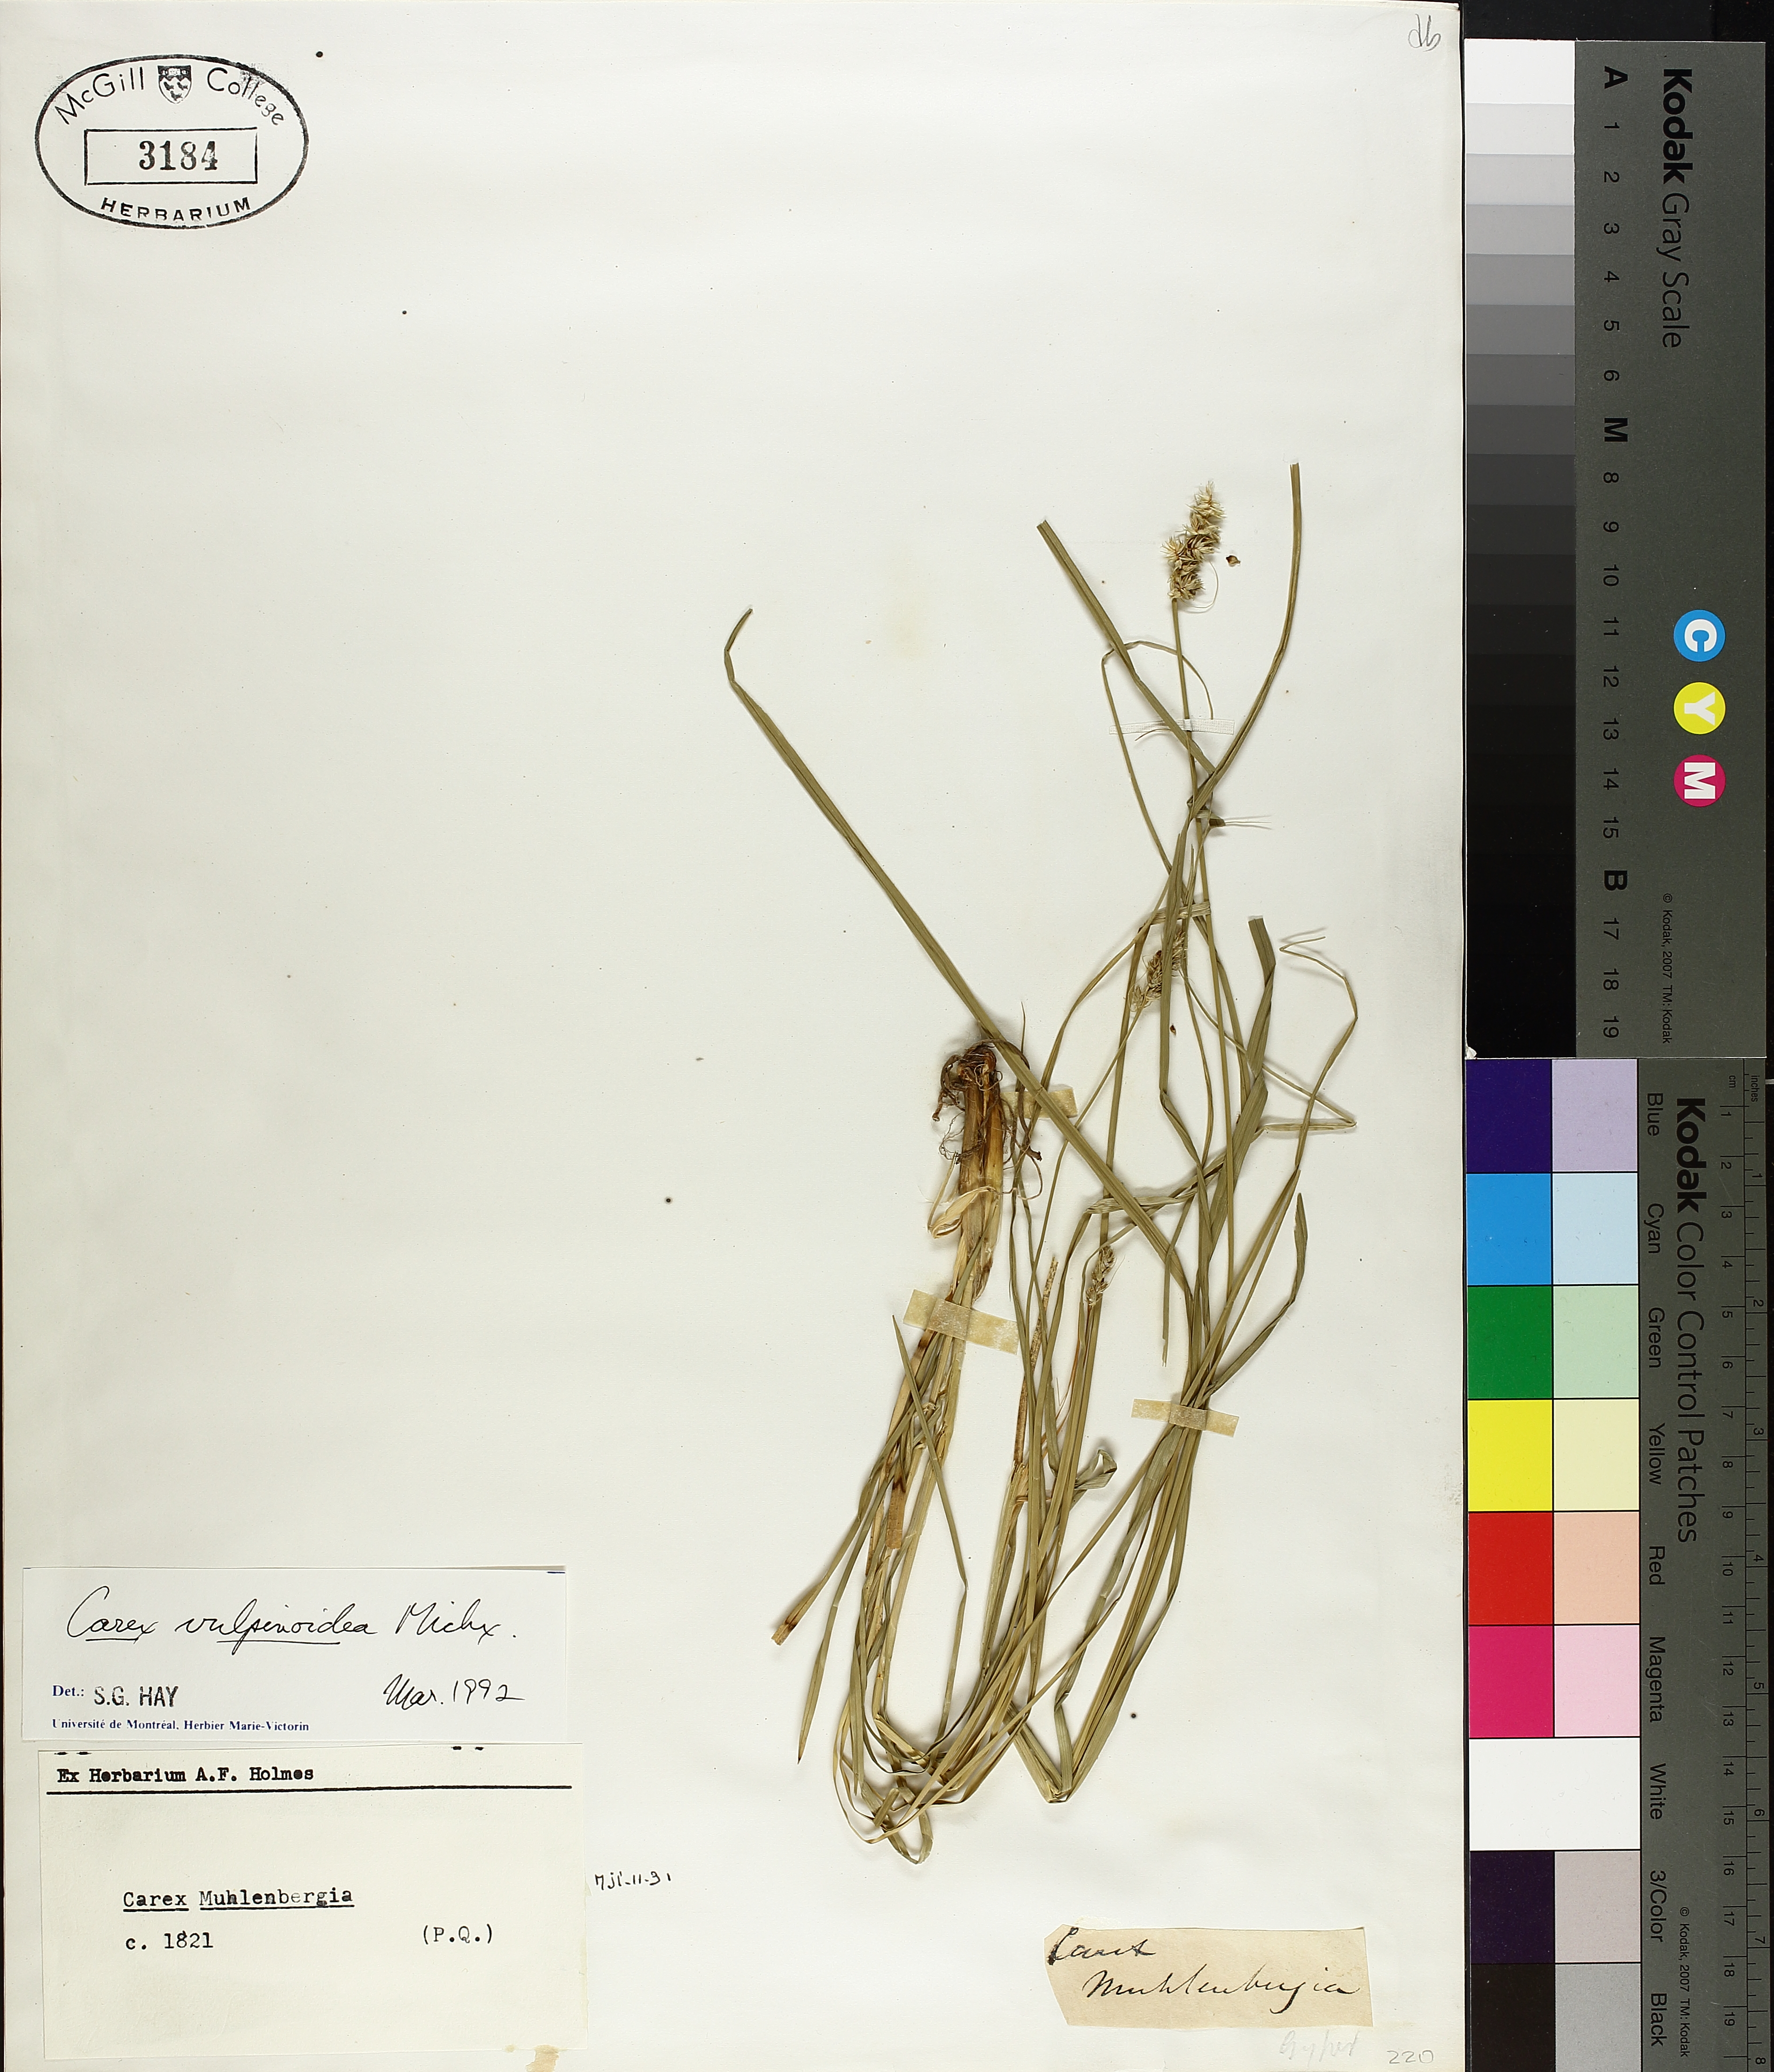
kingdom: Plantae
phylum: Tracheophyta
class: Liliopsida
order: Poales
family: Cyperaceae
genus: Carex
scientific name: Carex vulpinoidea
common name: American fox-sedge
